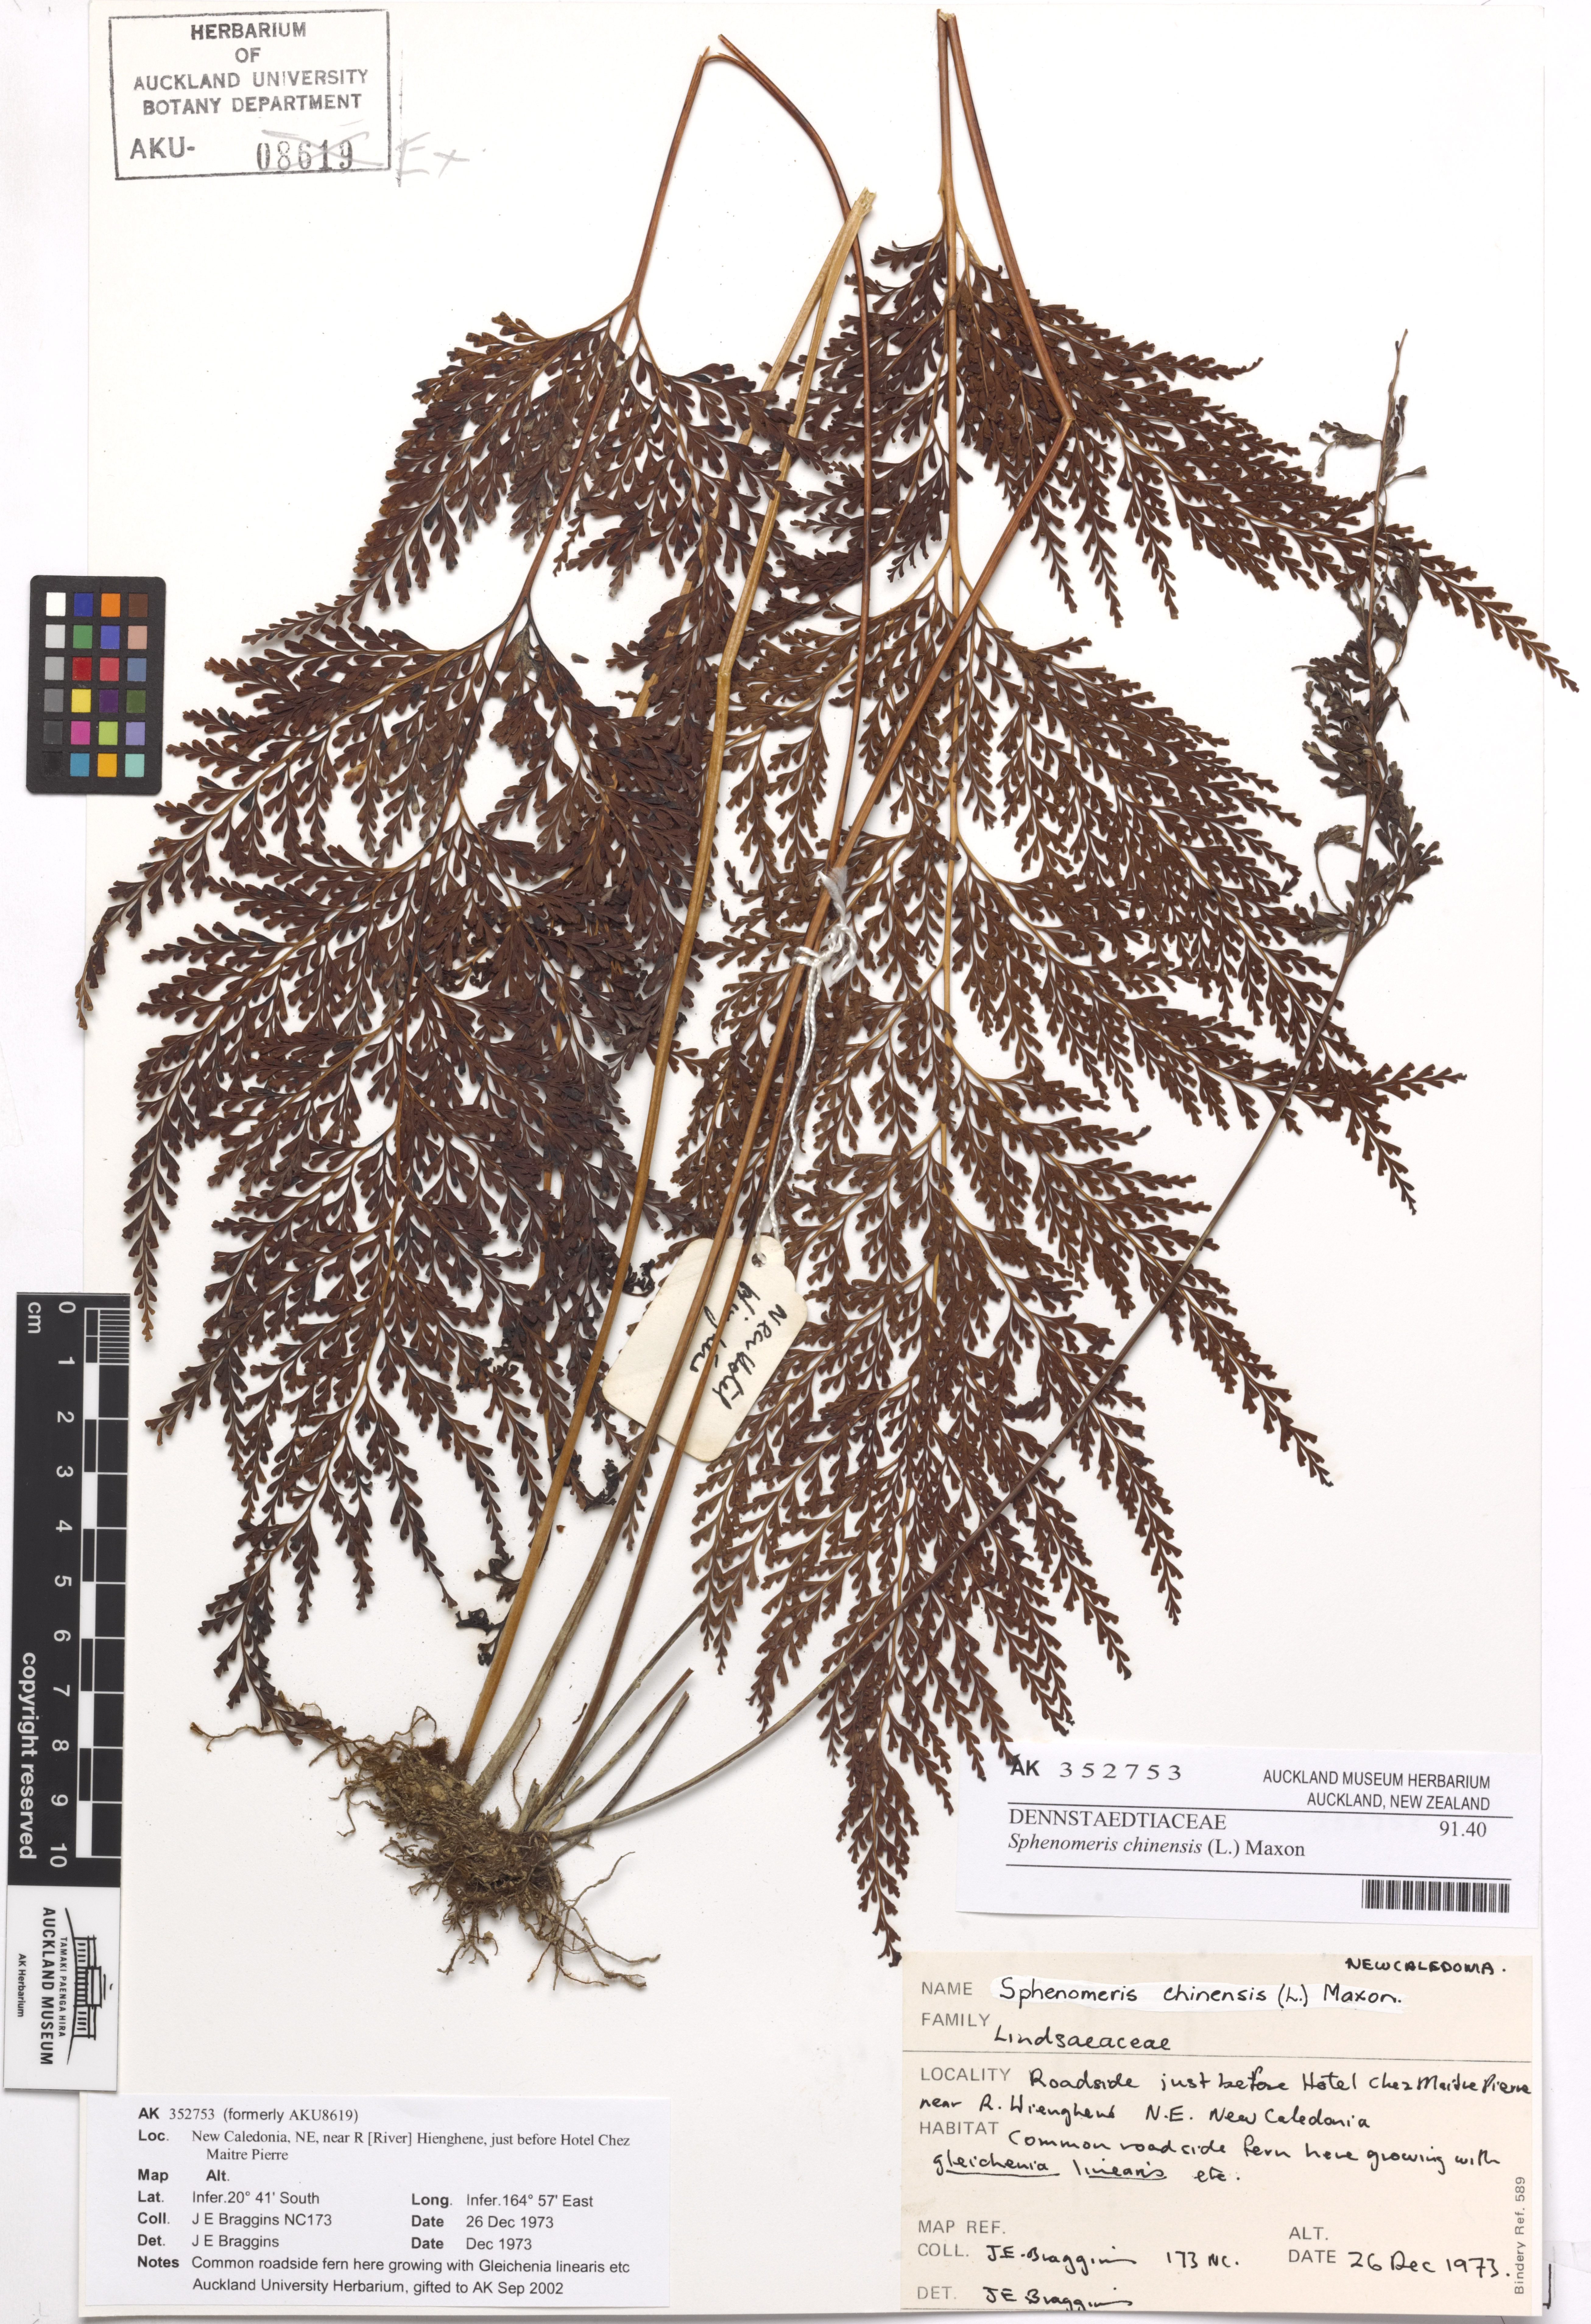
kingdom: Plantae
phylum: Tracheophyta
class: Polypodiopsida
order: Polypodiales
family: Lindsaeaceae
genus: Odontosoria
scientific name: Odontosoria chinensis
